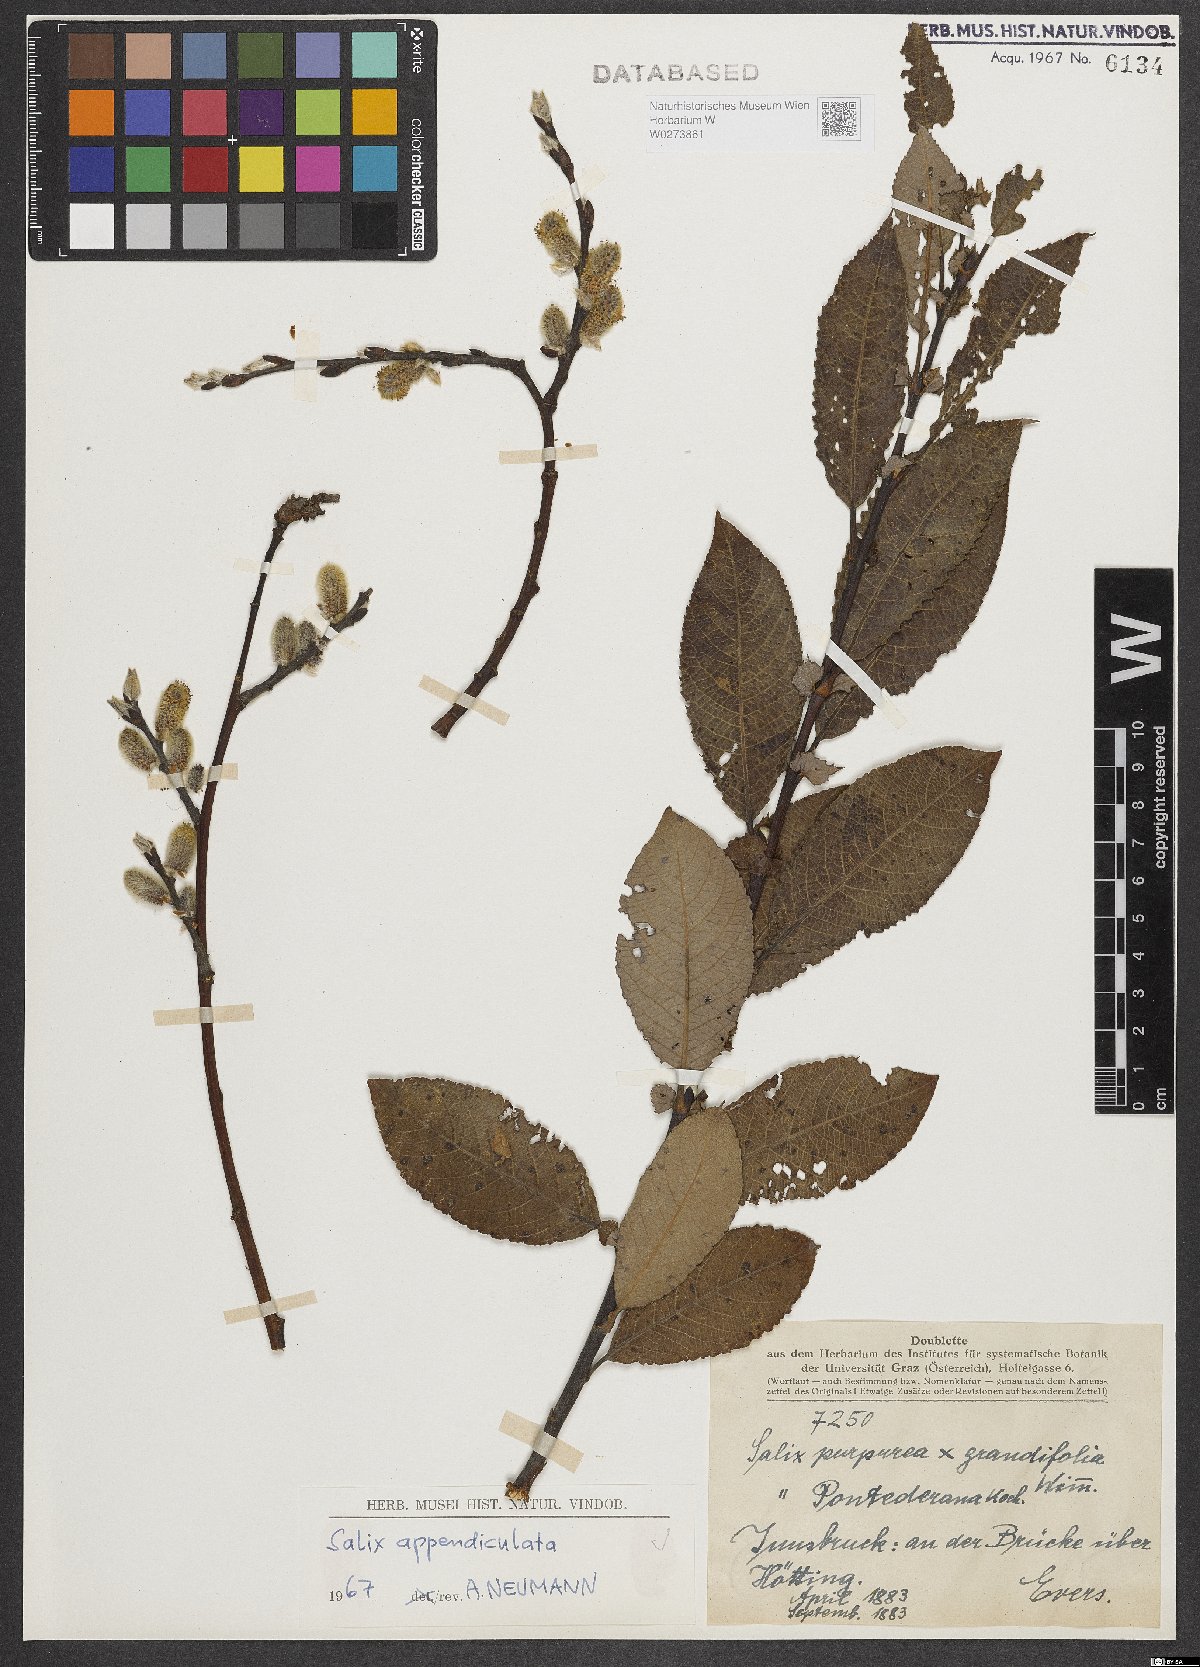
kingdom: Plantae
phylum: Tracheophyta
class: Magnoliopsida
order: Malpighiales
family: Salicaceae
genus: Salix
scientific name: Salix appendiculata
